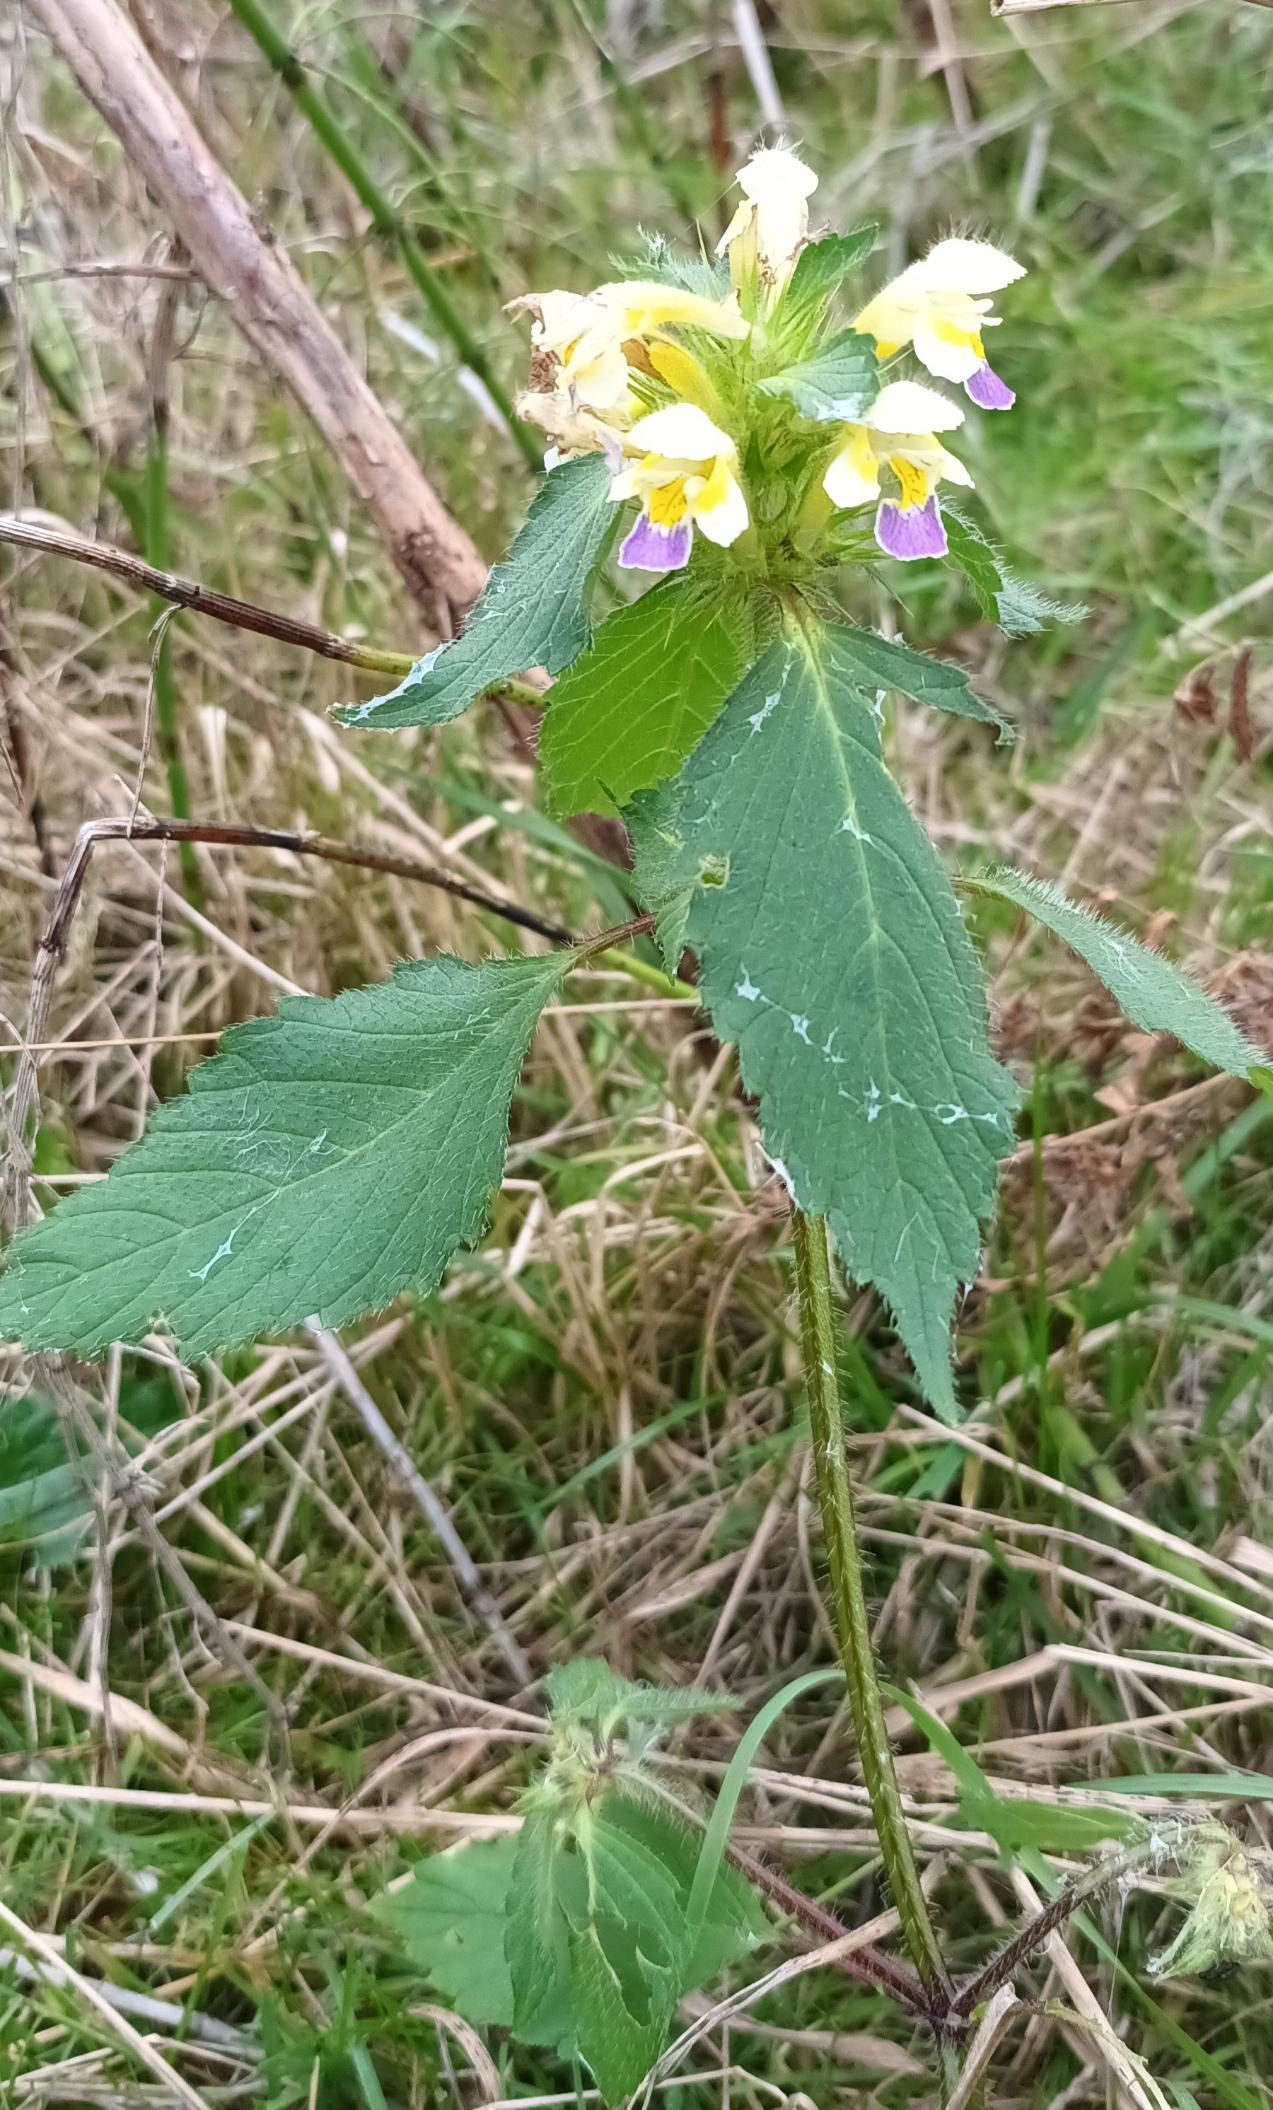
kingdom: Plantae
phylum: Tracheophyta
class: Magnoliopsida
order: Lamiales
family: Lamiaceae
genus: Galeopsis
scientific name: Galeopsis speciosa
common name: Hamp-hanekro
